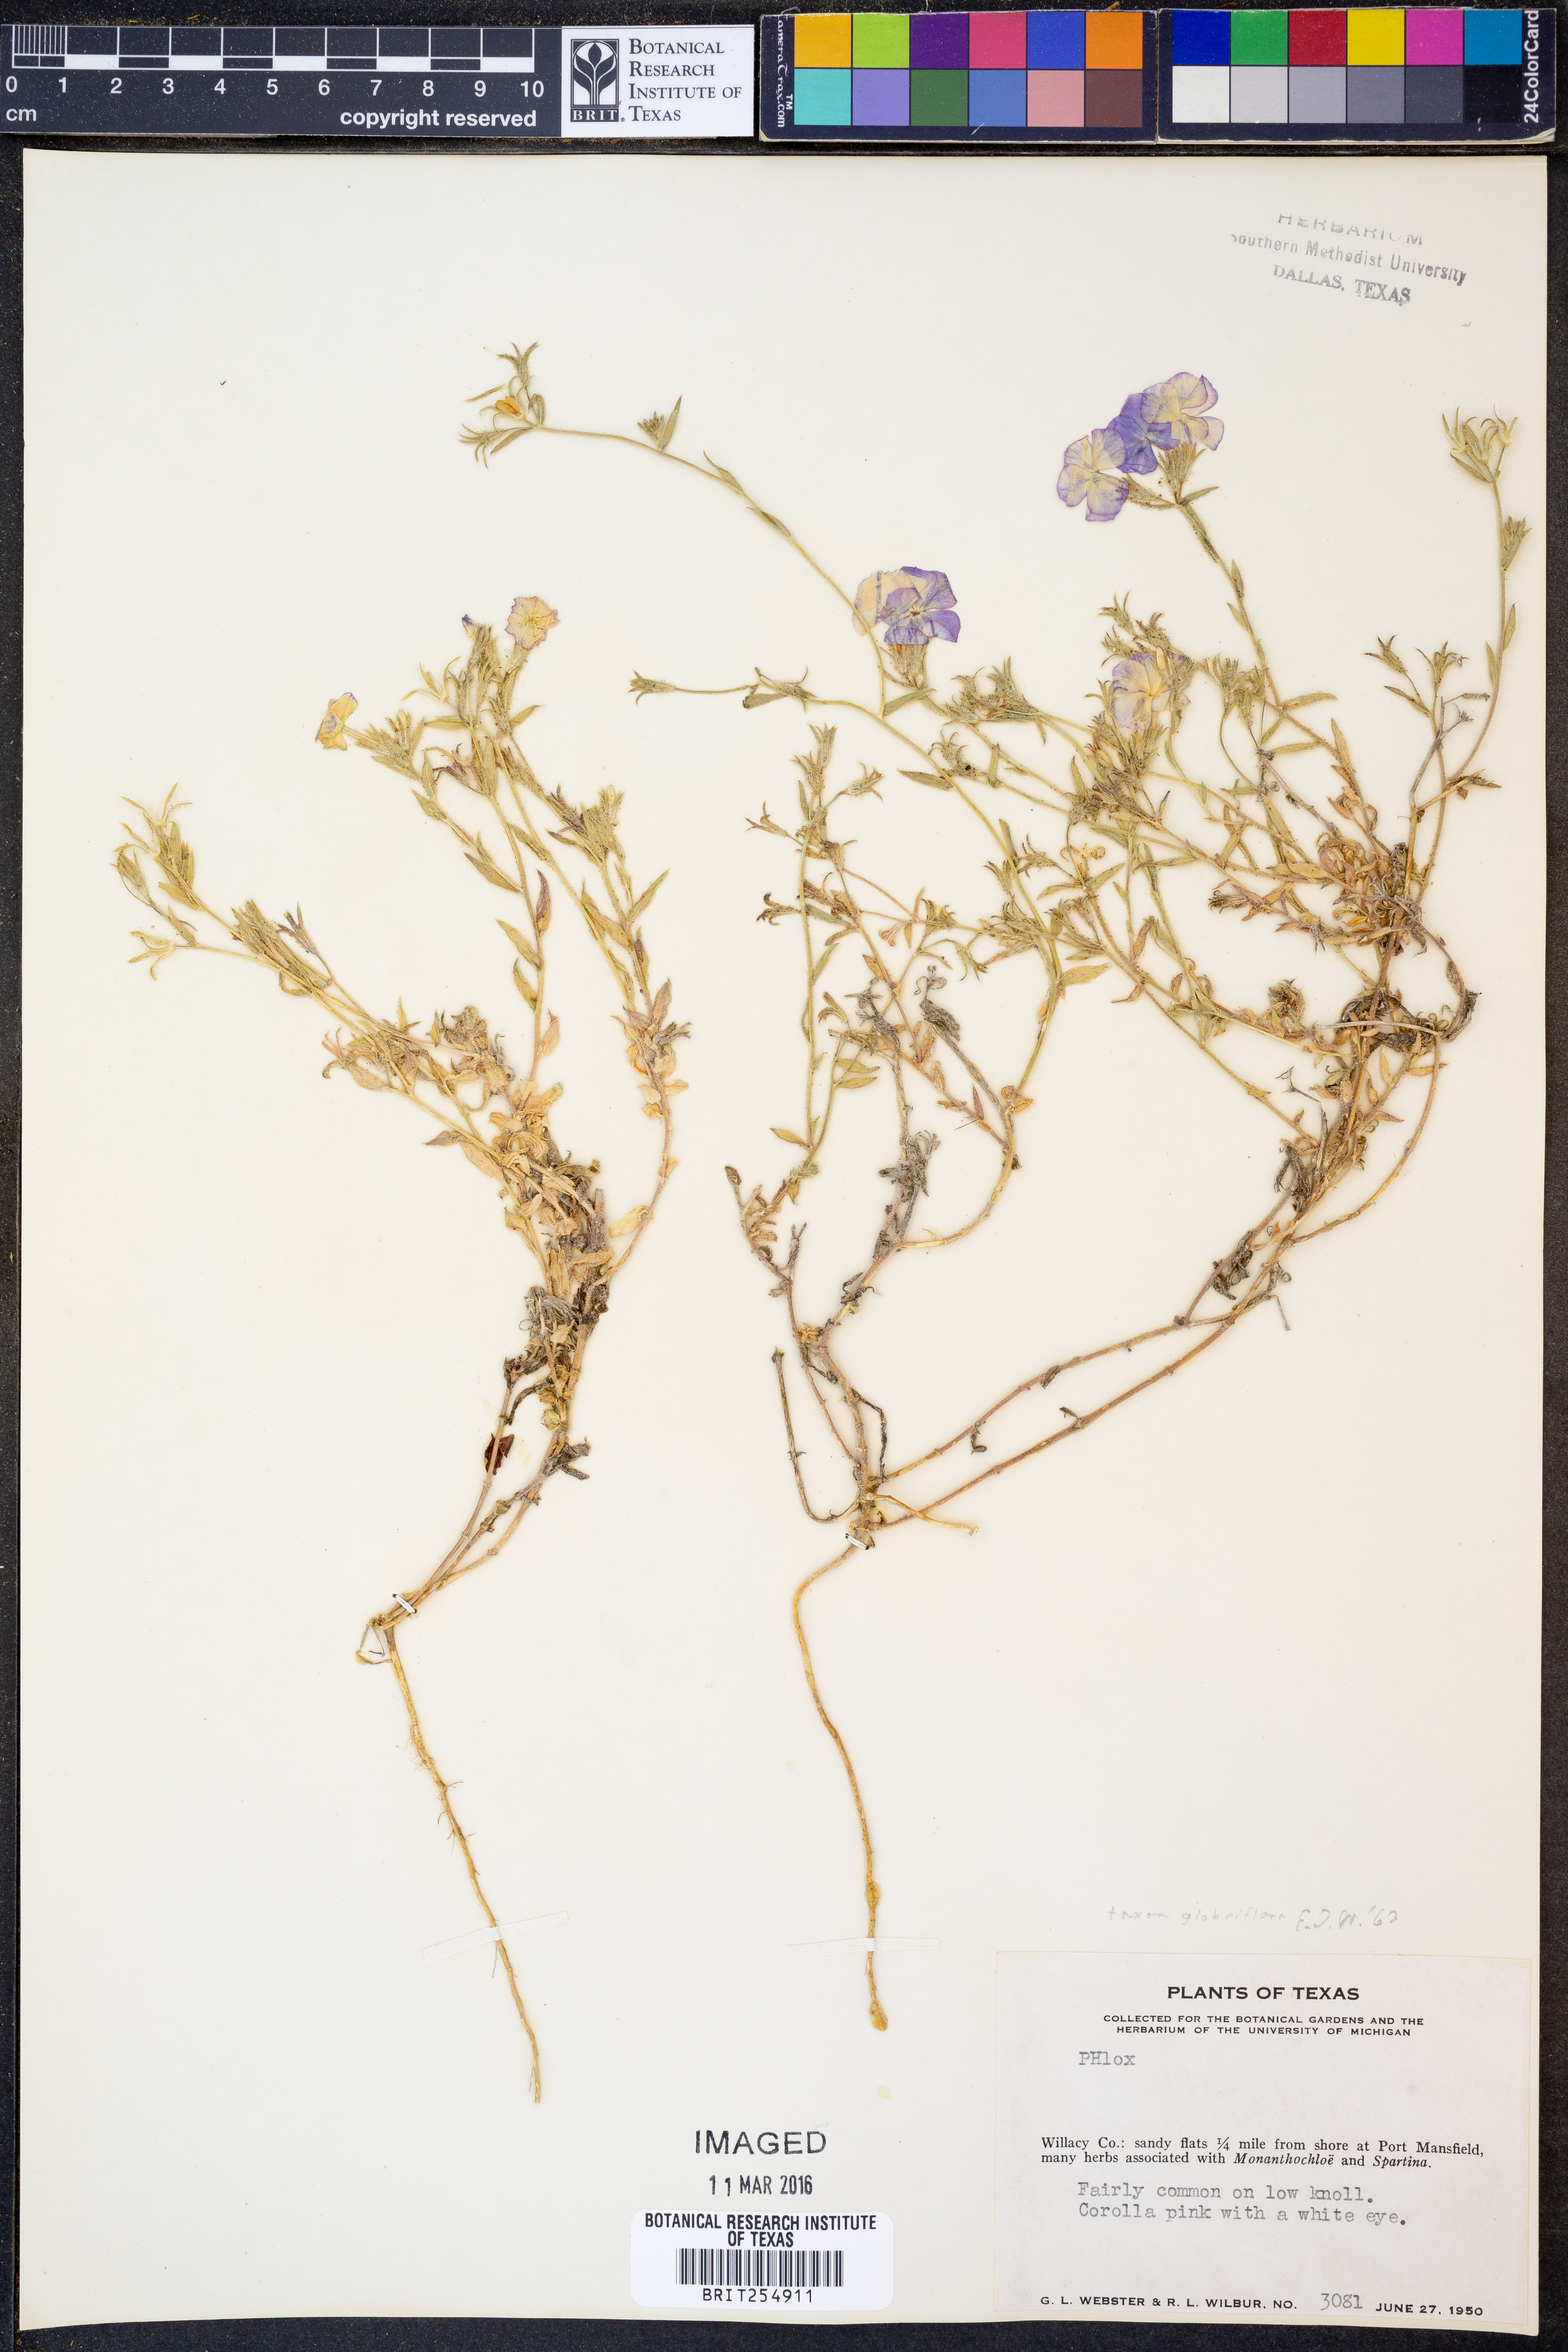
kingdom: Plantae
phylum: Tracheophyta
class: Magnoliopsida
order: Ericales
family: Polemoniaceae
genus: Phlox
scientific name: Phlox glabriflora
